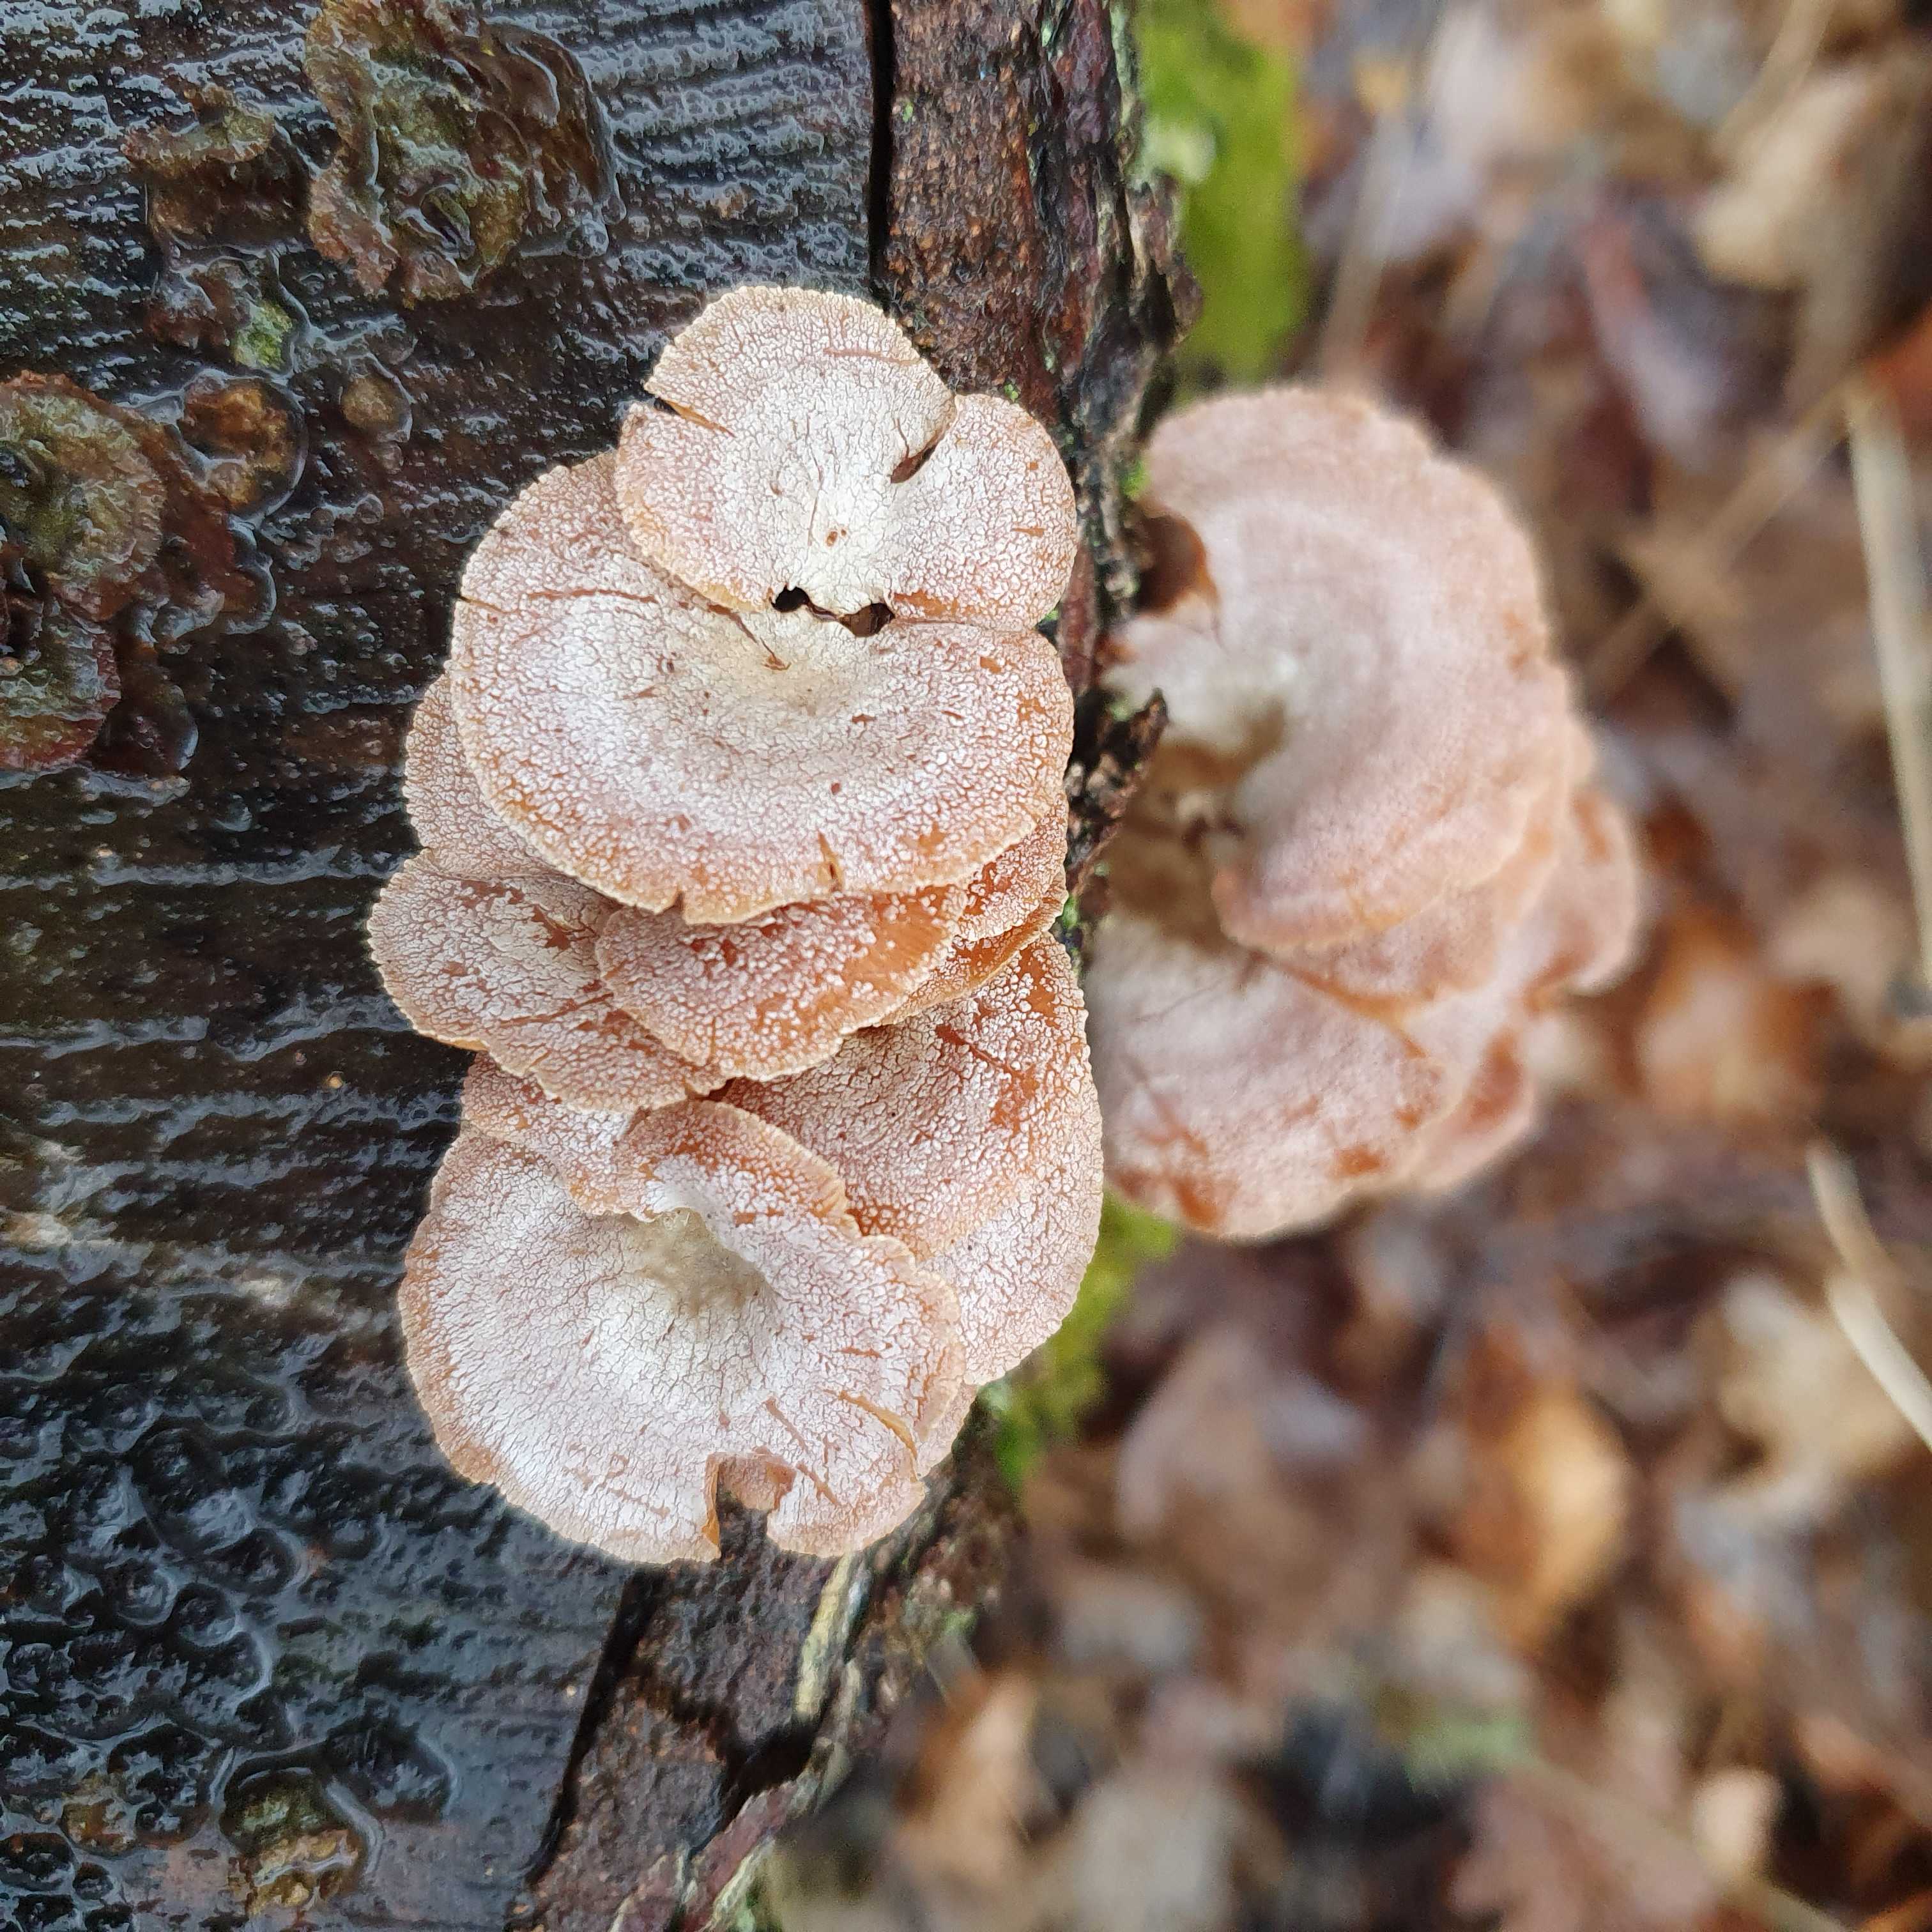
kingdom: Fungi
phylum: Basidiomycota
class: Agaricomycetes
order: Agaricales
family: Mycenaceae
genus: Panellus
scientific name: Panellus stipticus
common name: kliddet epaulethat
